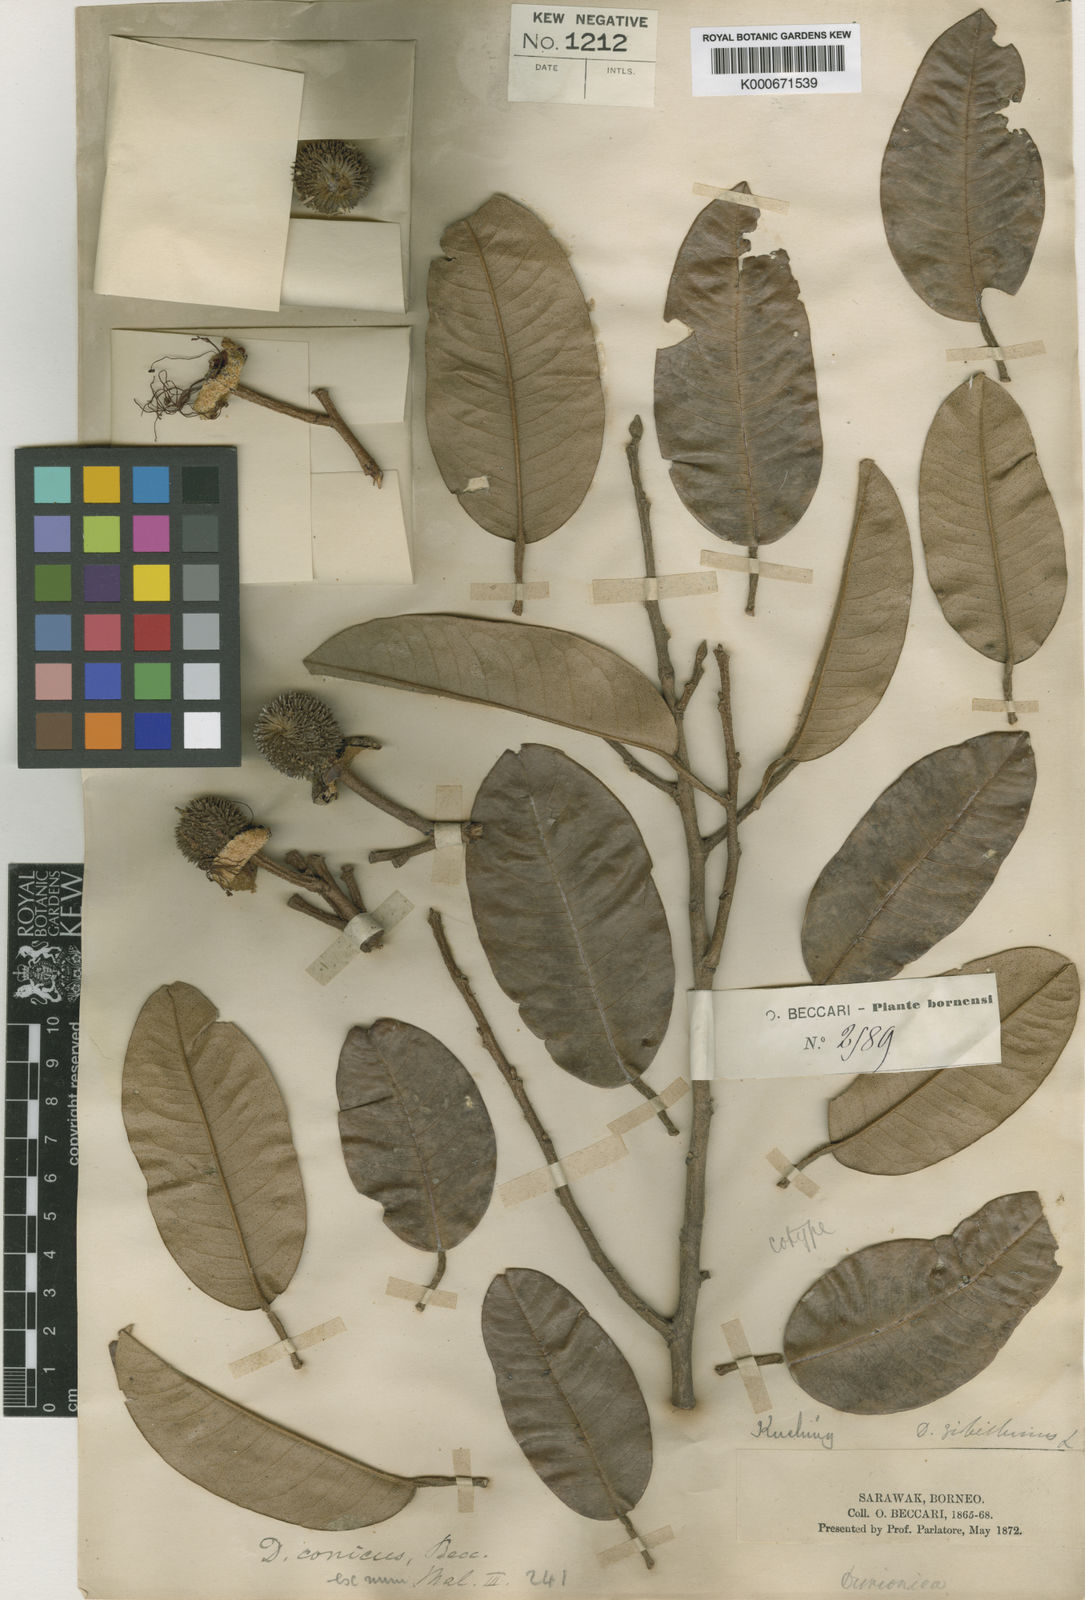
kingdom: Plantae
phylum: Tracheophyta
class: Magnoliopsida
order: Malvales
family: Malvaceae
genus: Durio
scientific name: Durio graveolens
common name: Durian
